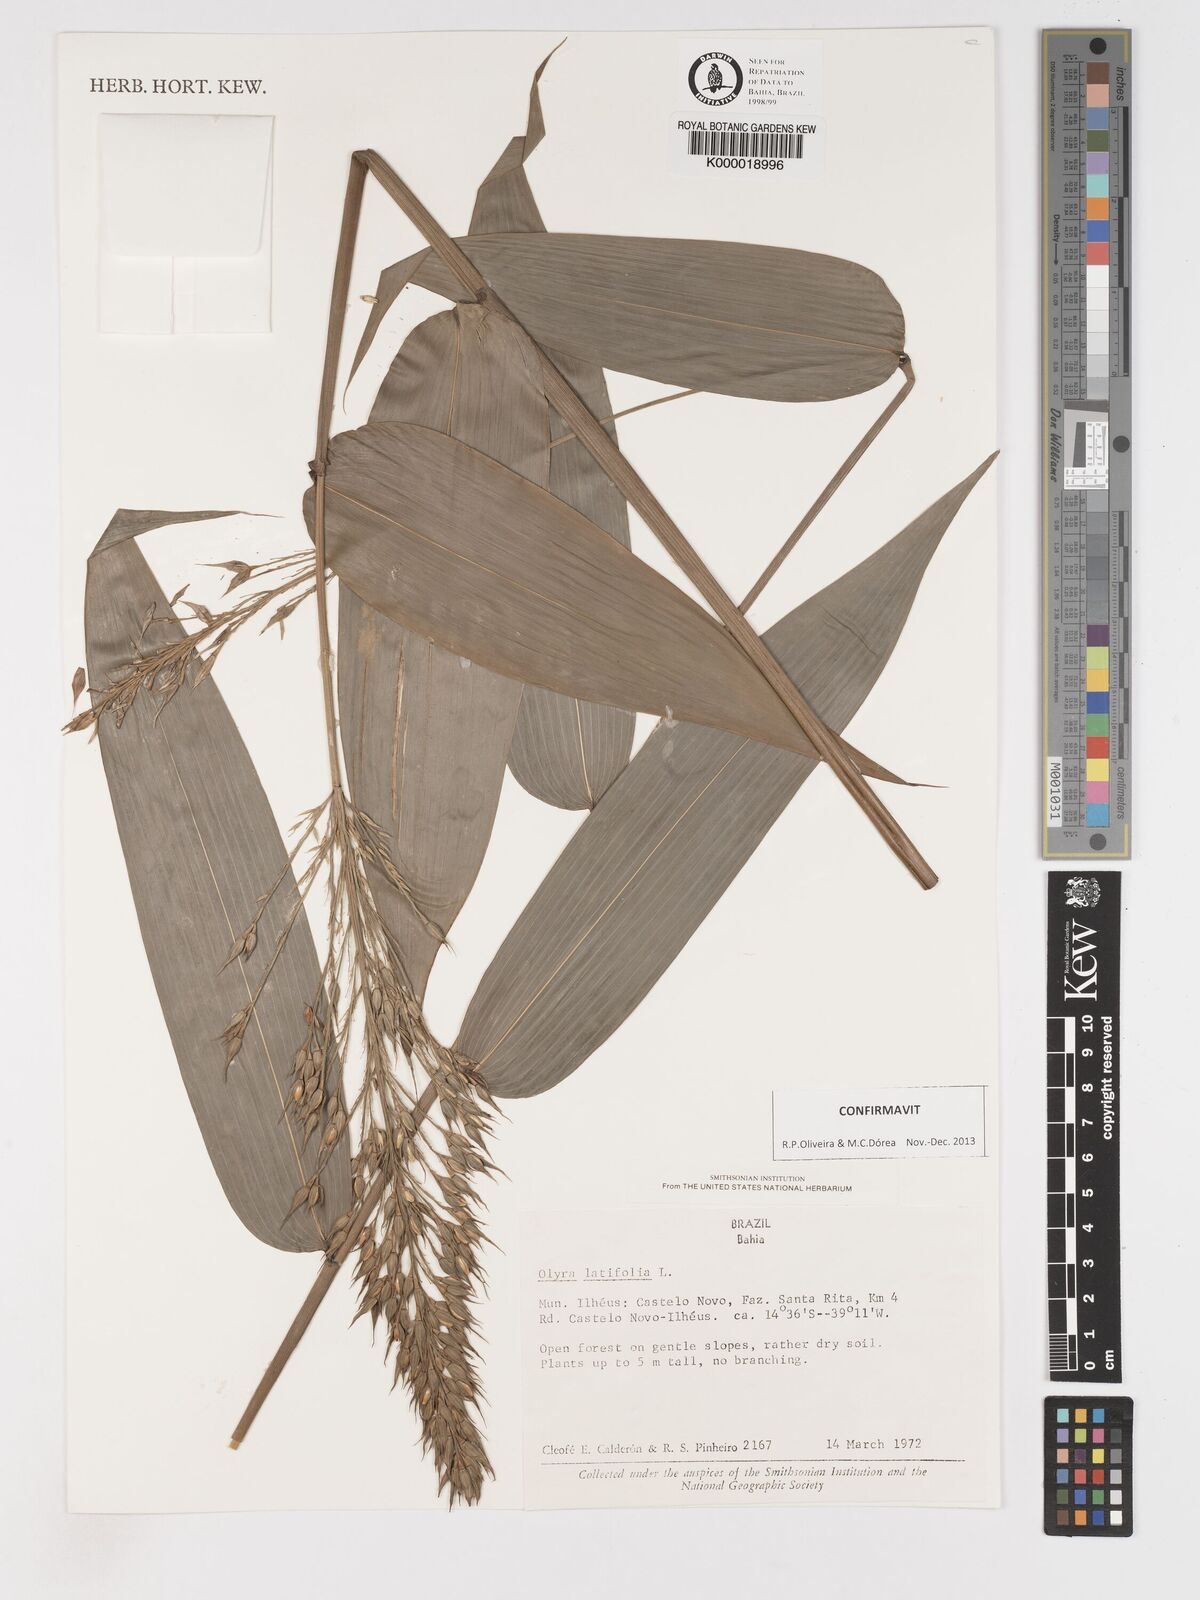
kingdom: Plantae
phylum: Tracheophyta
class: Liliopsida
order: Poales
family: Poaceae
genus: Olyra
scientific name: Olyra latifolia
